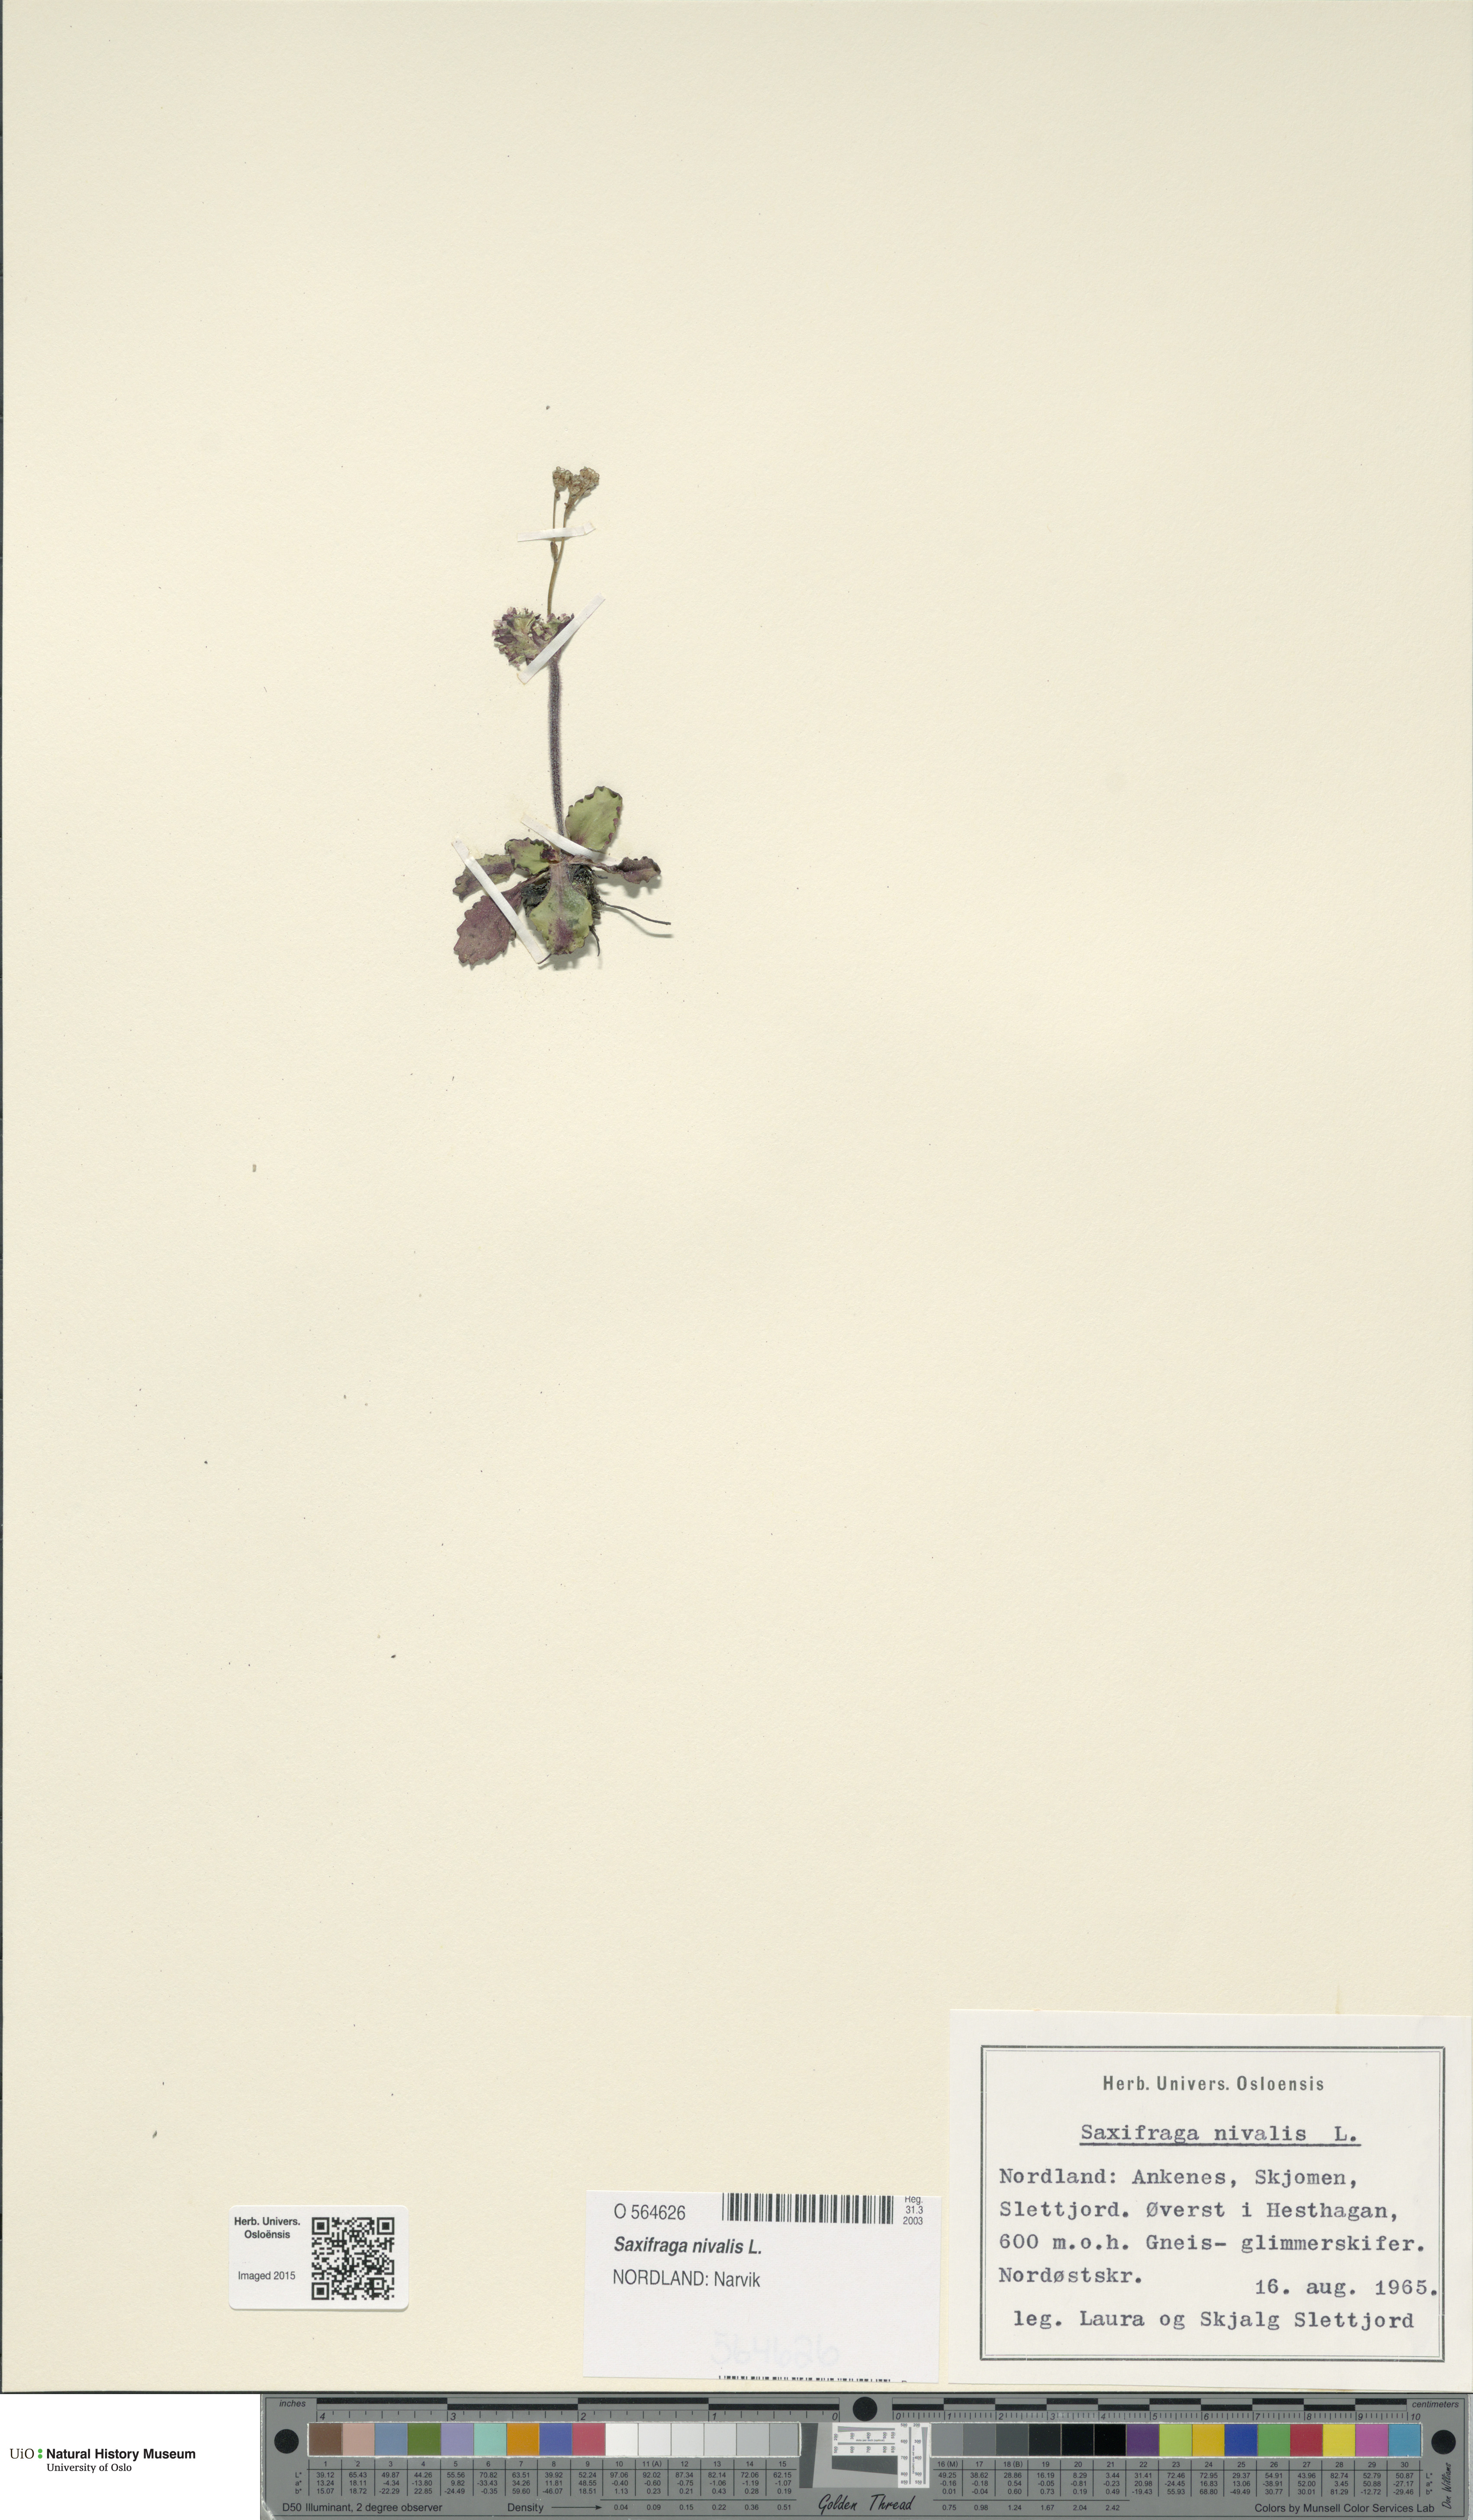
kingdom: Plantae
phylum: Tracheophyta
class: Magnoliopsida
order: Saxifragales
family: Saxifragaceae
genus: Micranthes
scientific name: Micranthes nivalis
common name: Alpine saxifrage
